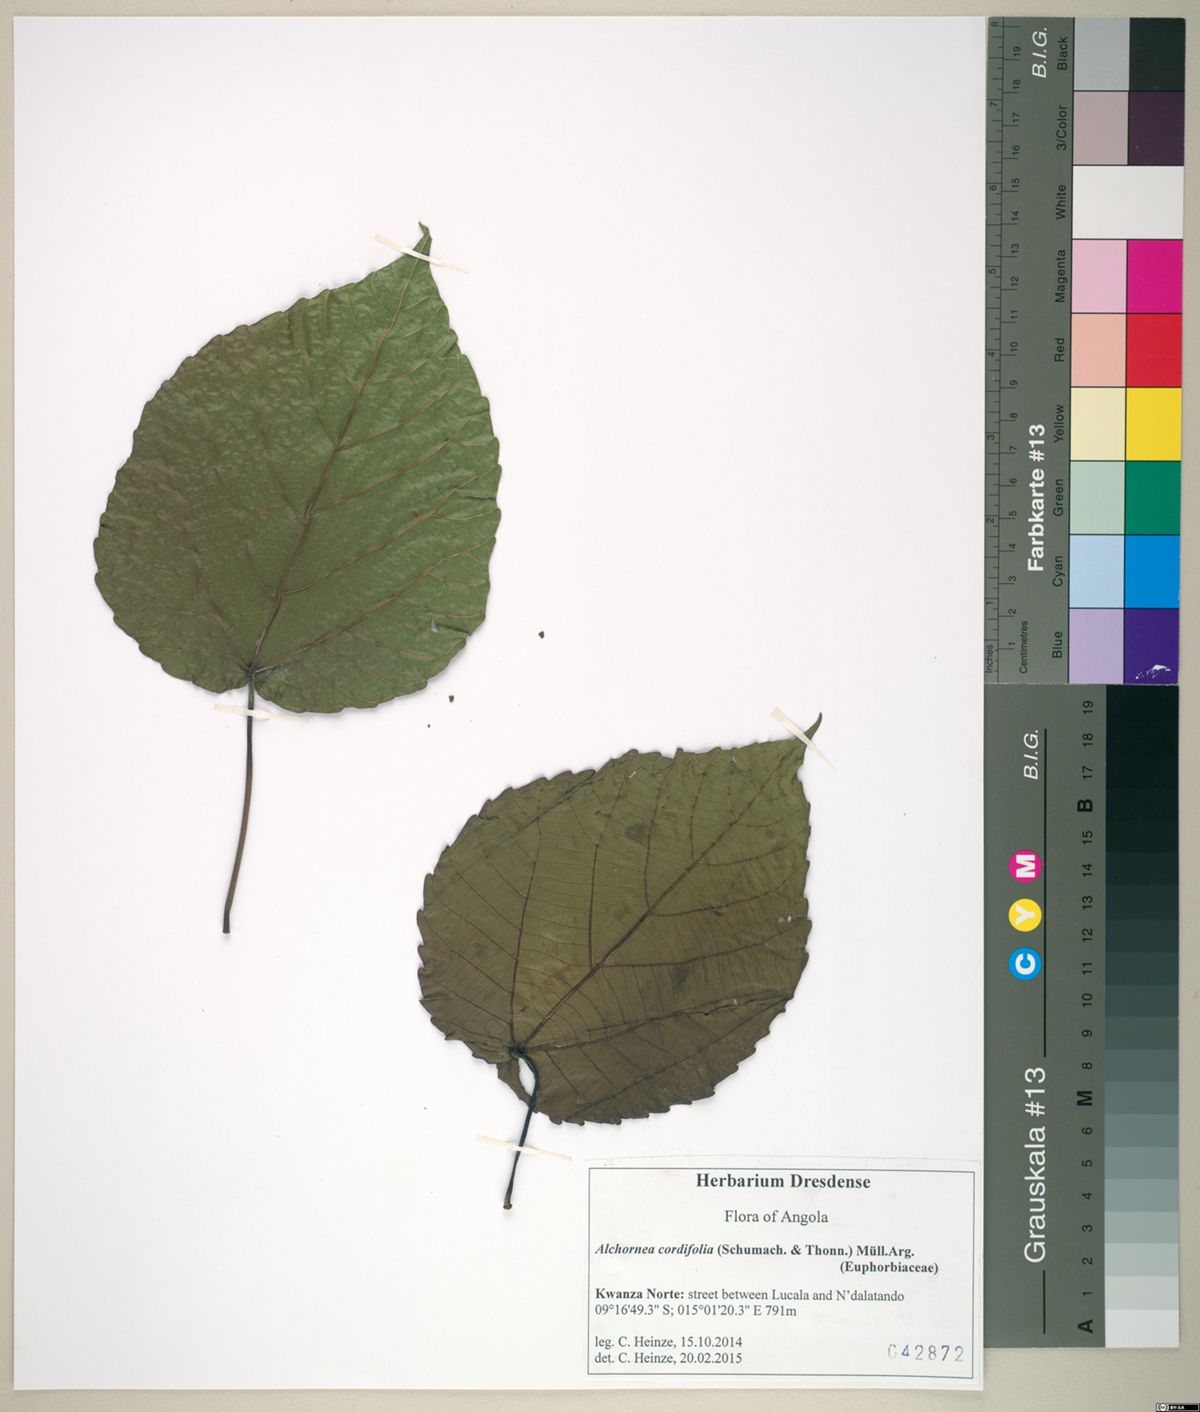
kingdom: Plantae
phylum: Tracheophyta
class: Magnoliopsida
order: Malpighiales
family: Euphorbiaceae
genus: Alchornea
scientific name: Alchornea cordifolia
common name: Christmasbush
